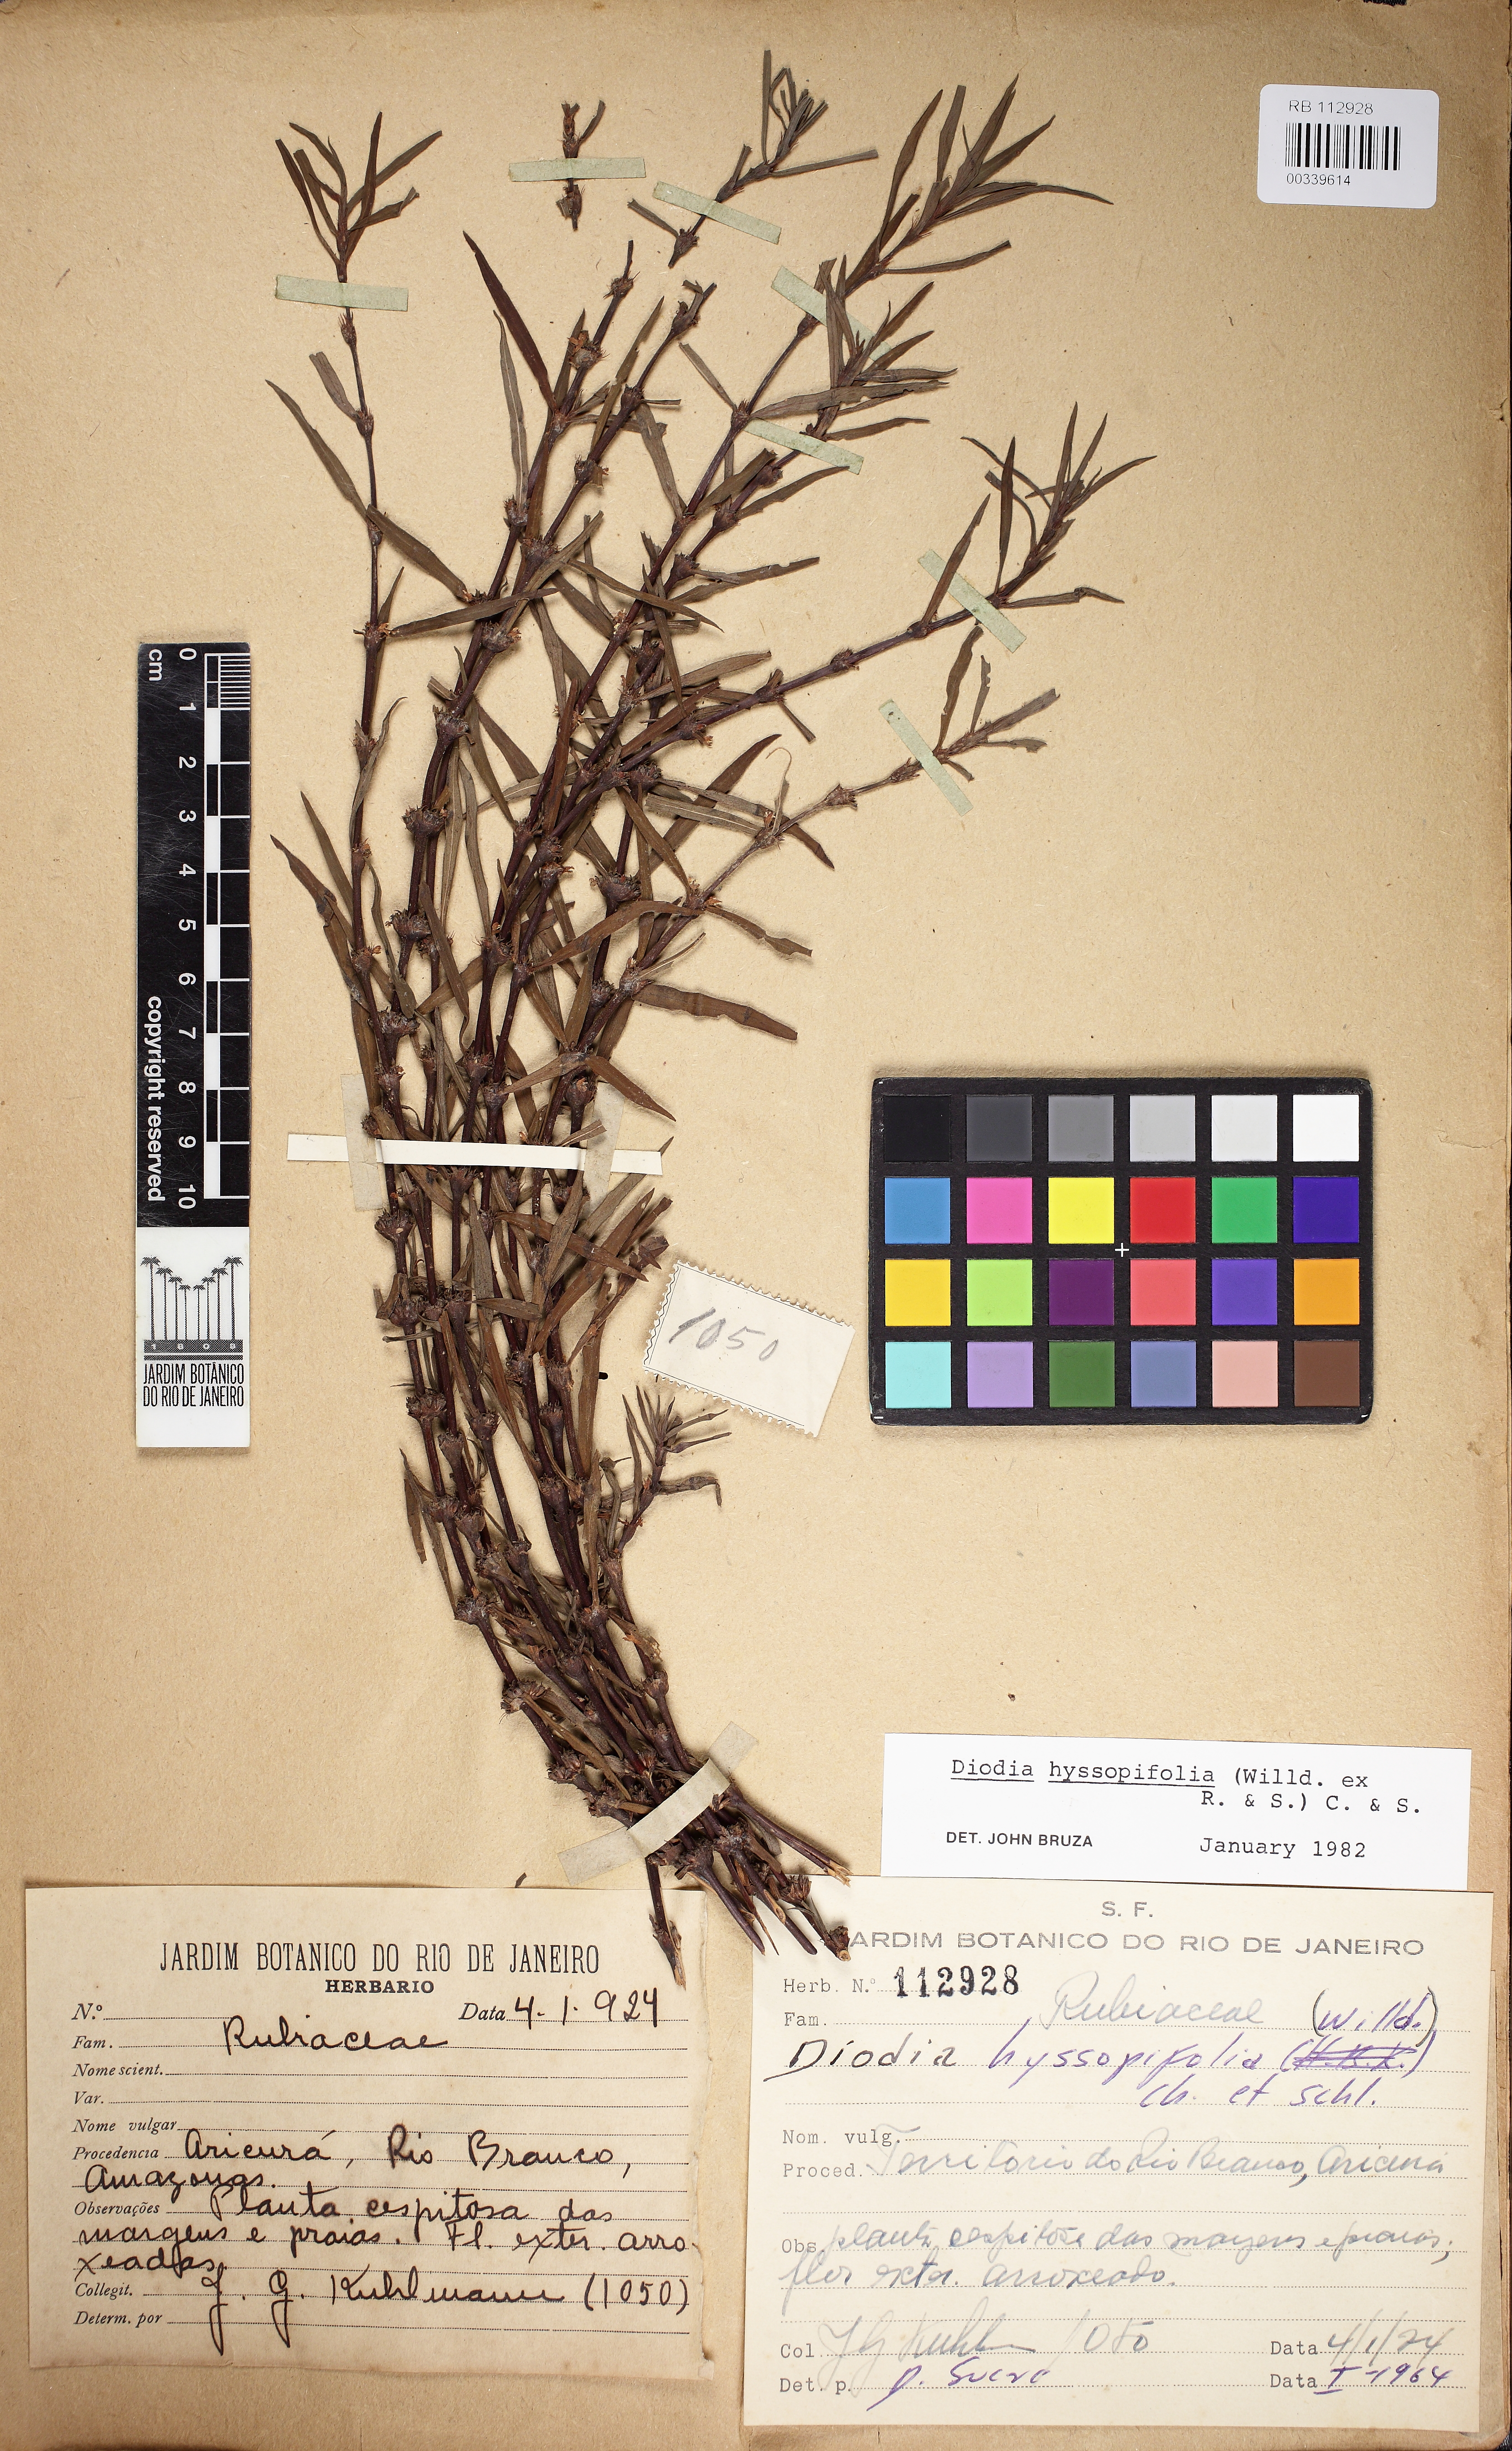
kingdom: Plantae
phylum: Tracheophyta
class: Magnoliopsida
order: Gentianales
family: Rubiaceae
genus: Spermacoce
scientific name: Spermacoce hyssopifolia
